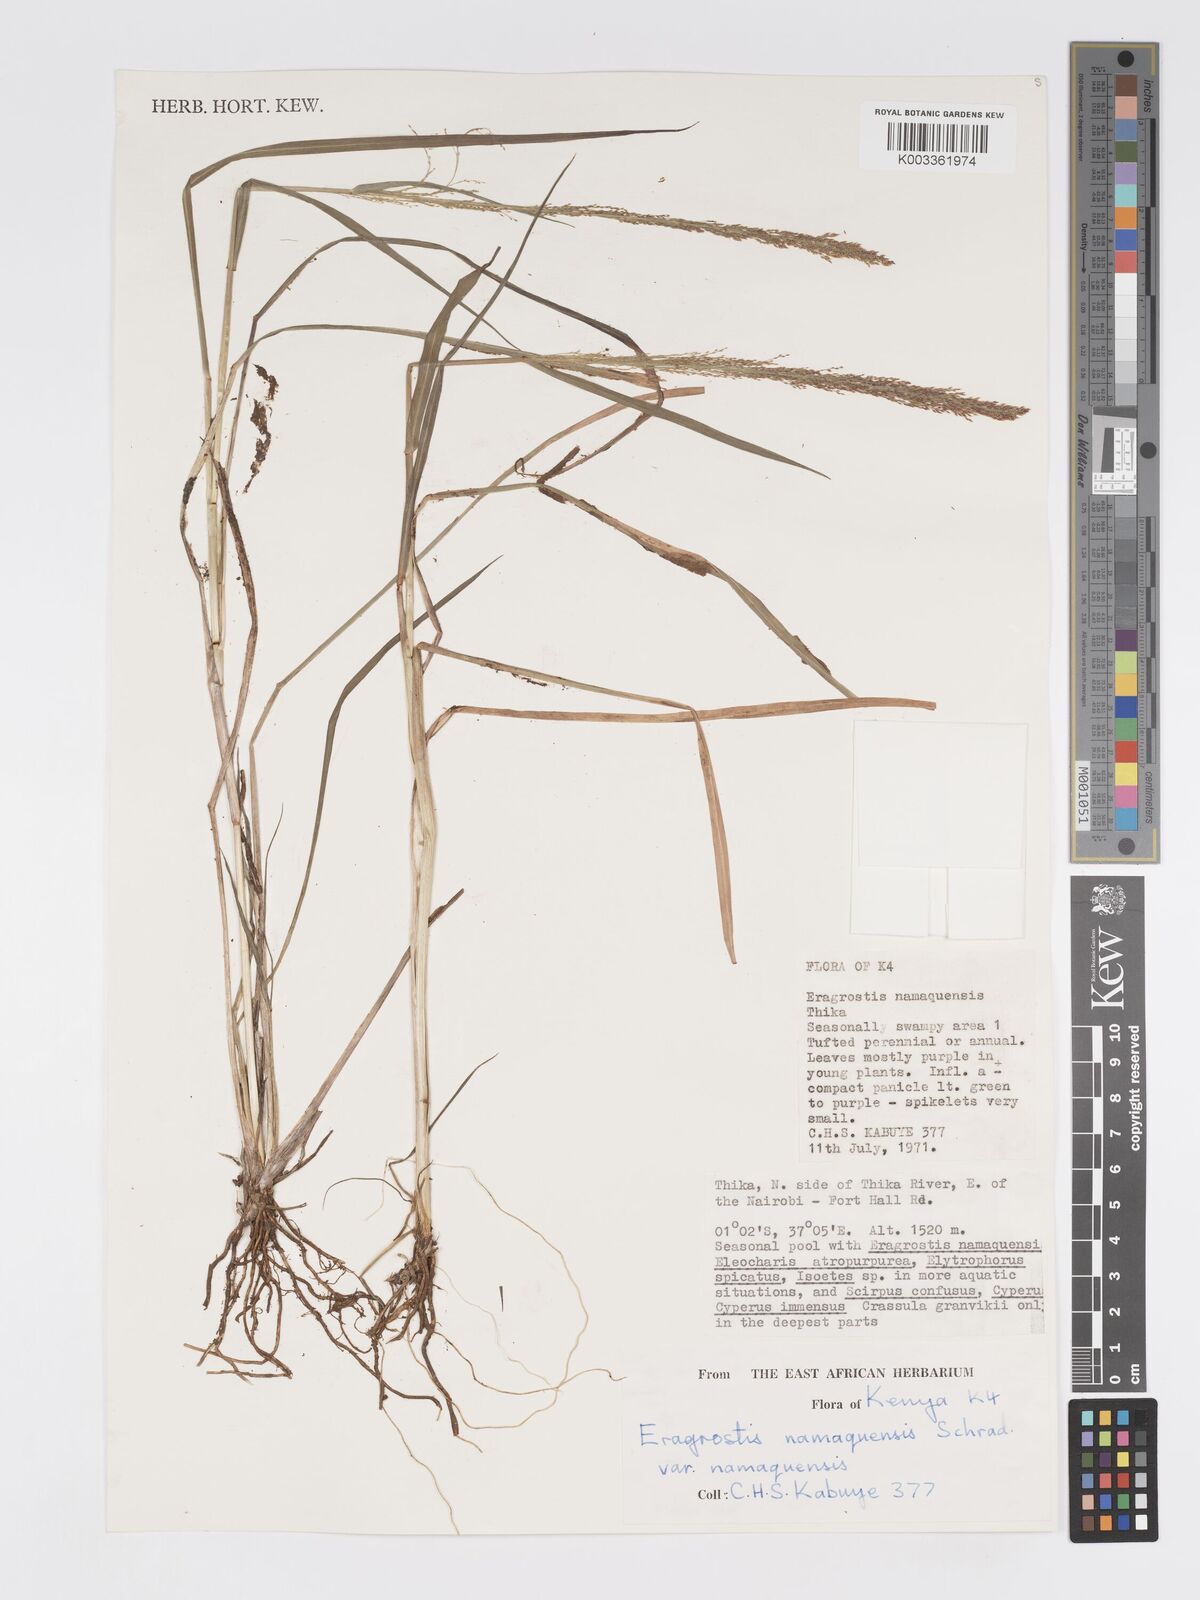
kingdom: Plantae
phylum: Tracheophyta
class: Liliopsida
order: Poales
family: Poaceae
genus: Eragrostis
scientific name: Eragrostis japonica
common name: Pond lovegrass
